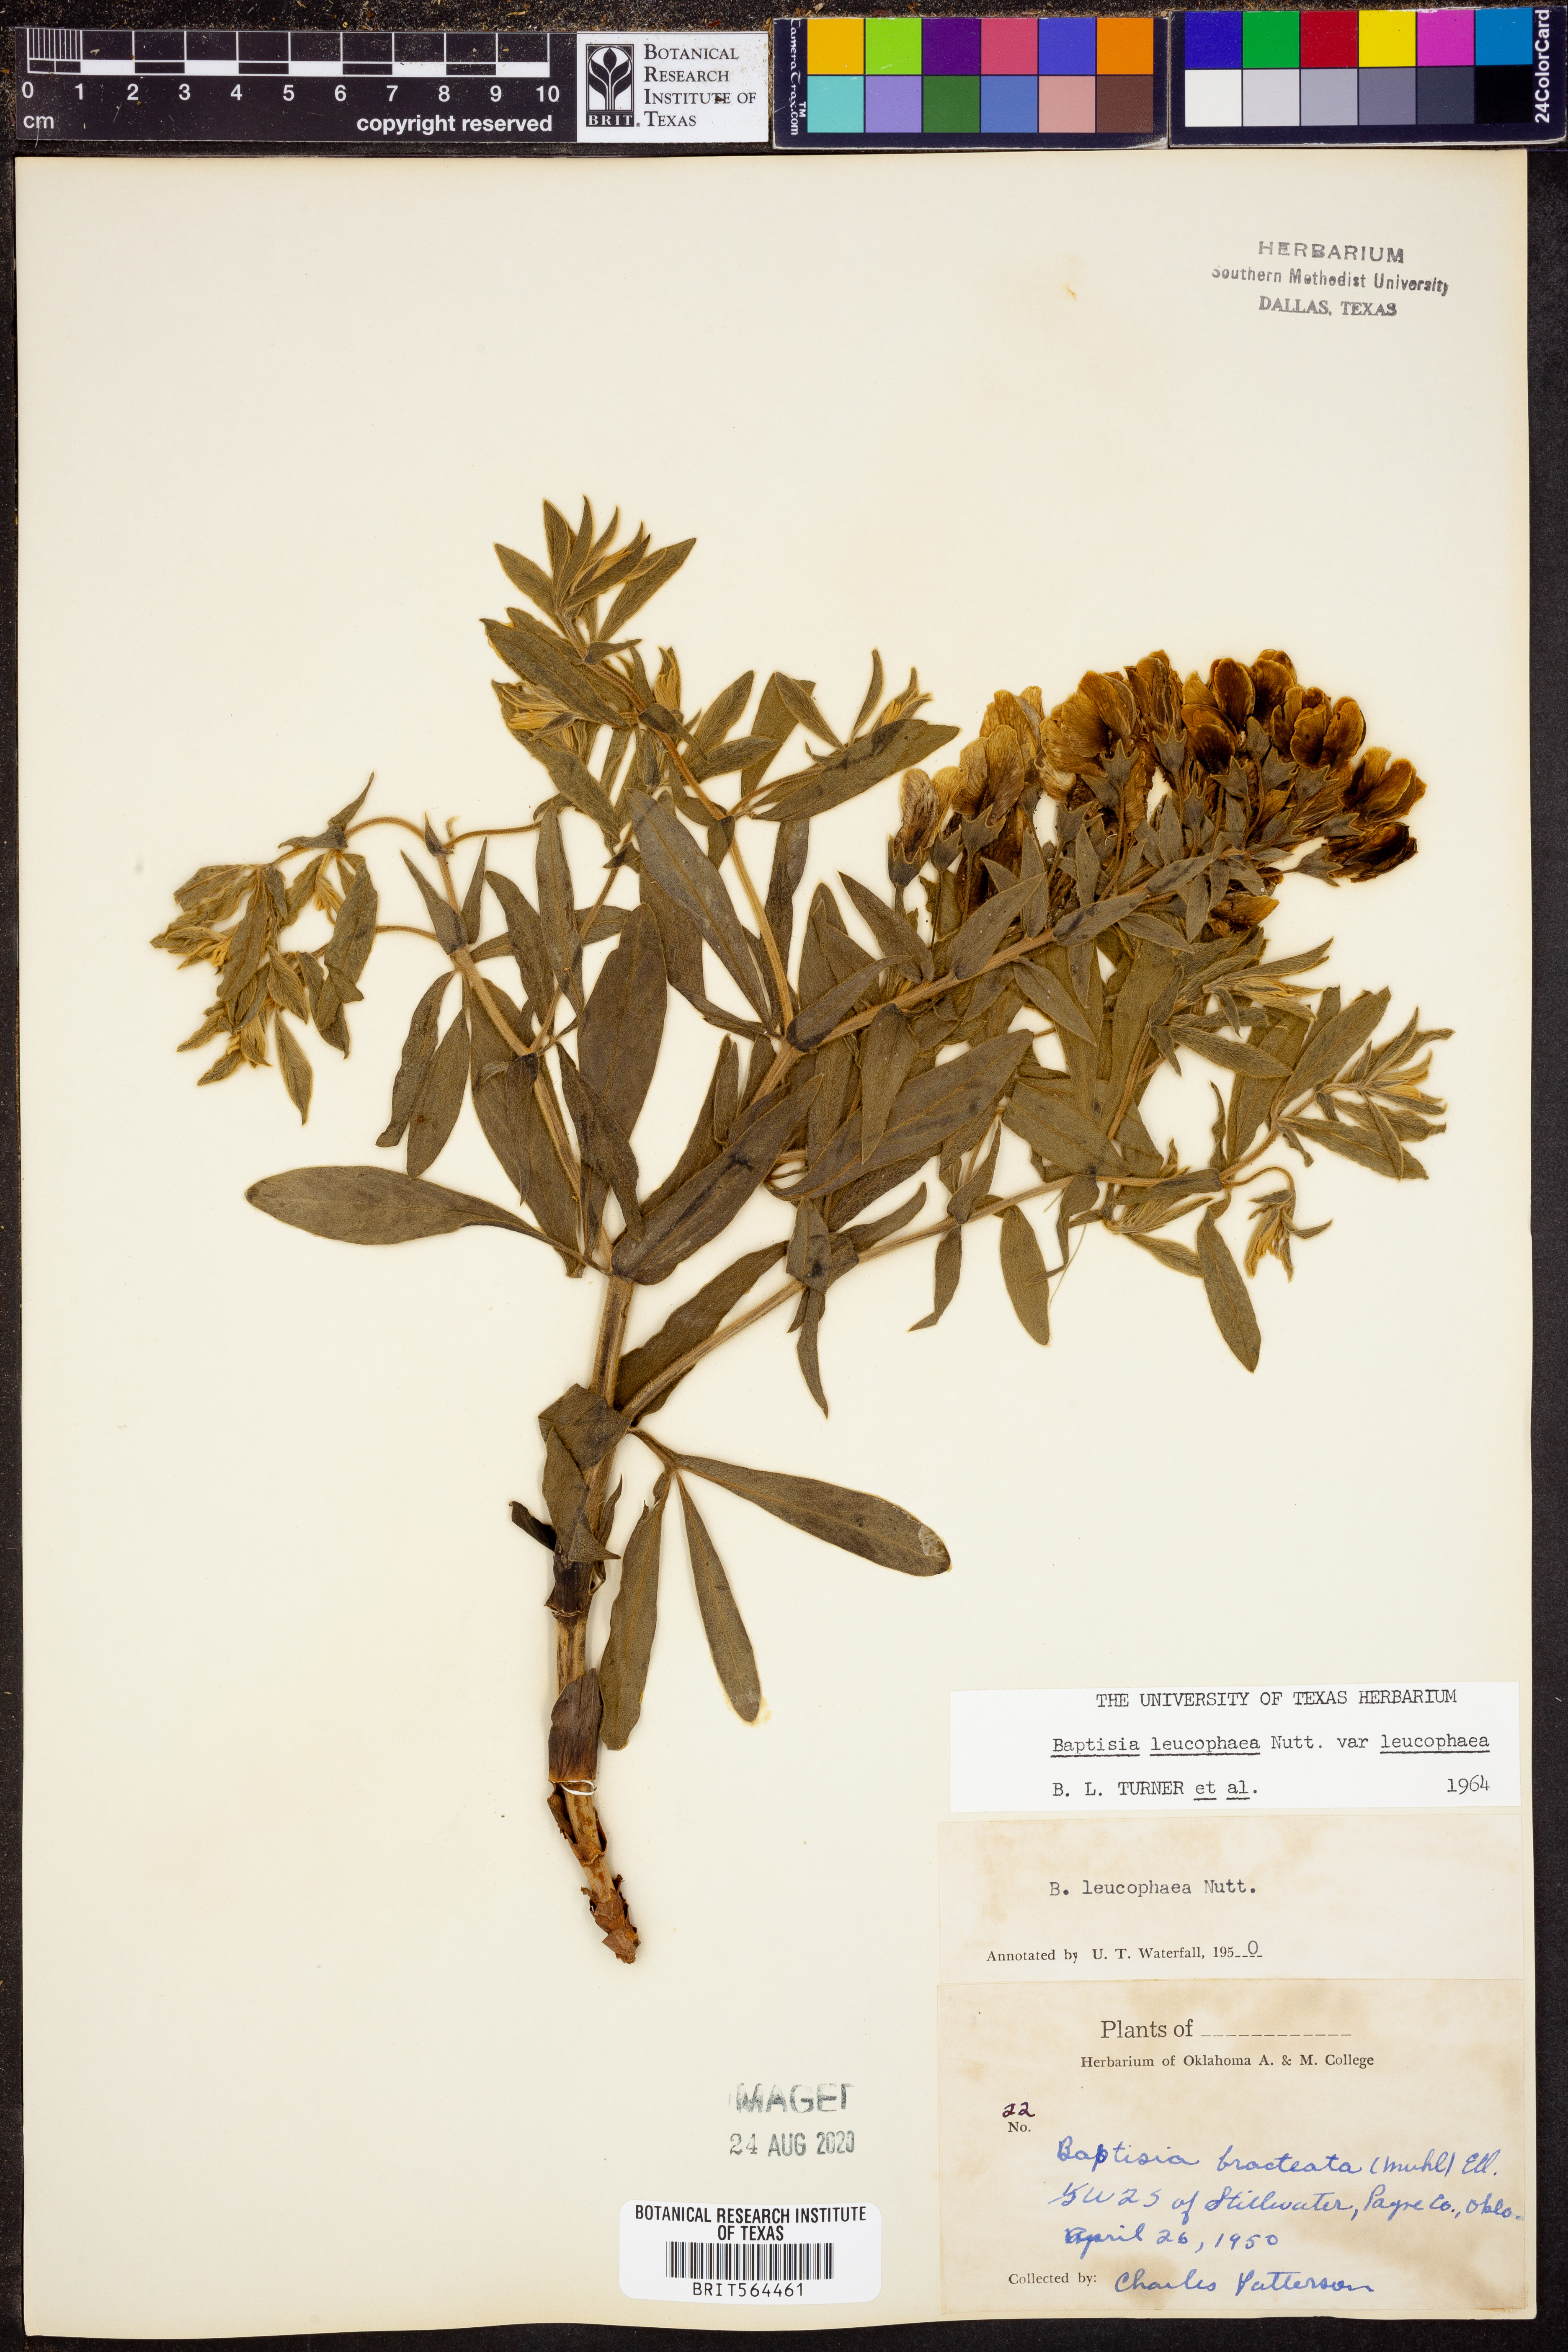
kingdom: Plantae
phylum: Tracheophyta
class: Magnoliopsida
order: Fabales
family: Fabaceae
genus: Baptisia
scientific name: Baptisia bracteata
